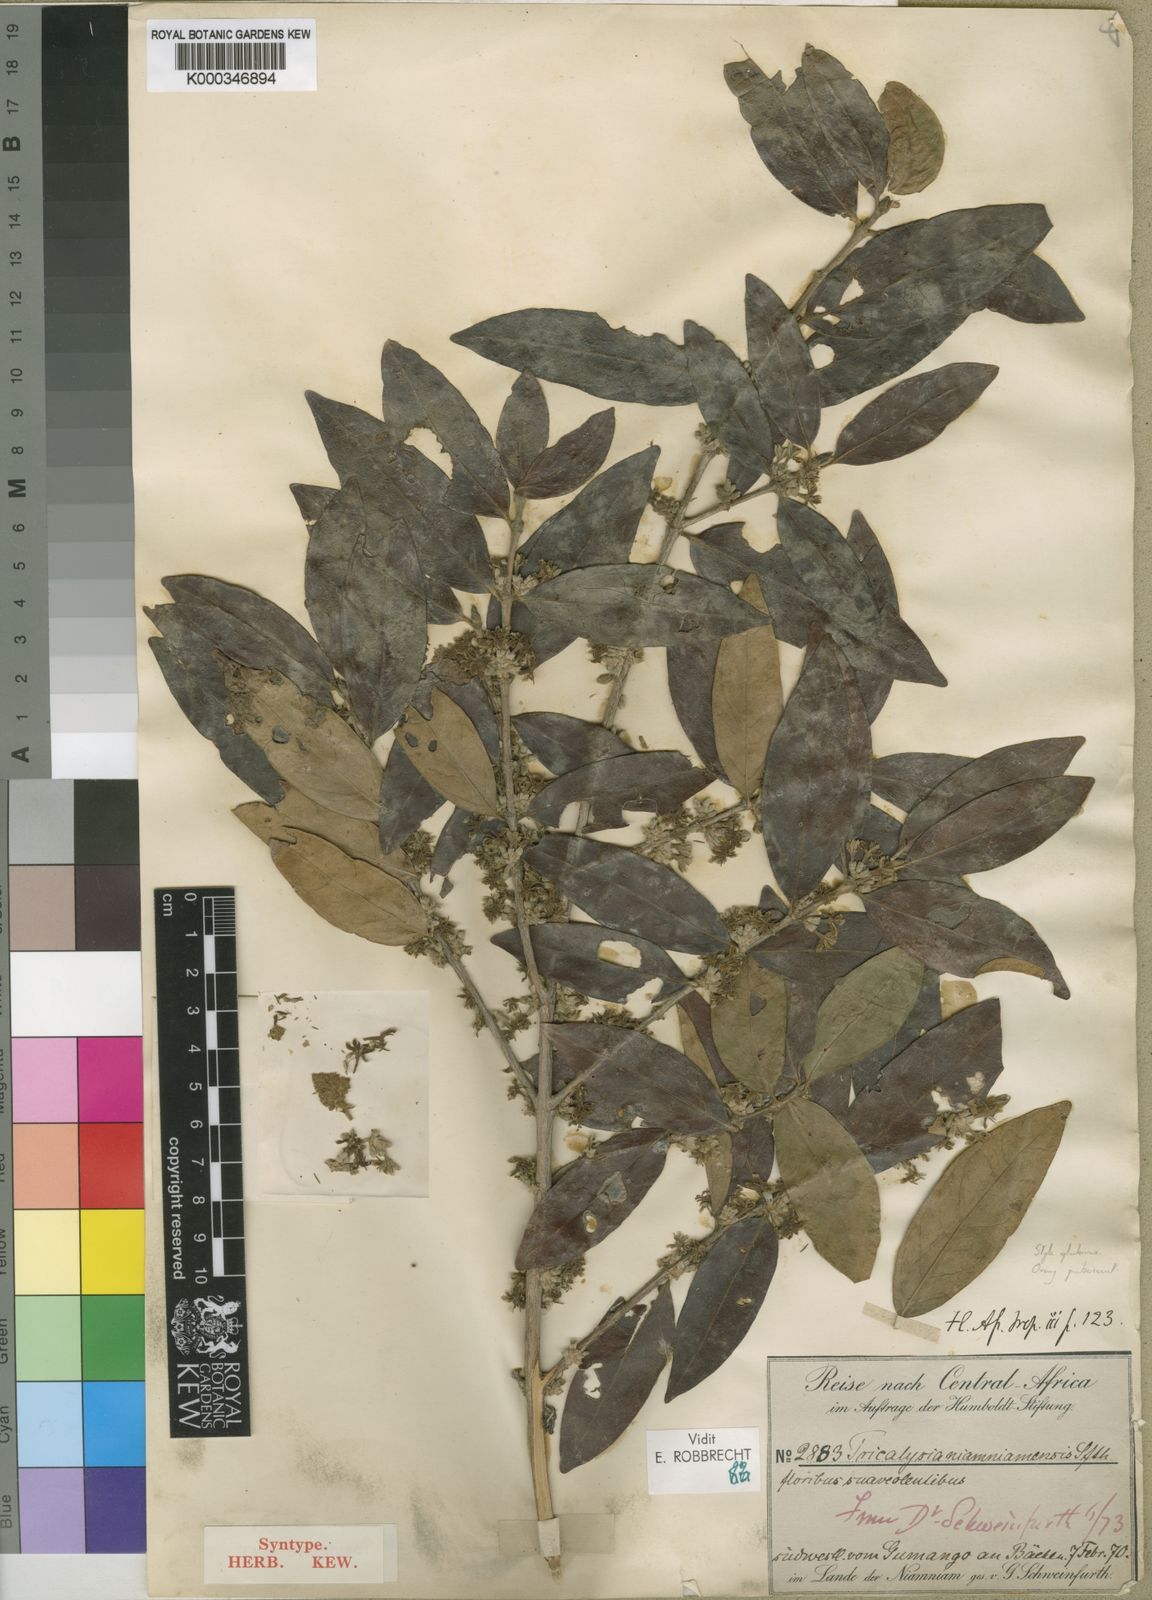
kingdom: Plantae
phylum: Tracheophyta
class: Magnoliopsida
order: Gentianales
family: Rubiaceae
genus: Tricalysia
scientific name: Tricalysia niamniamensis
